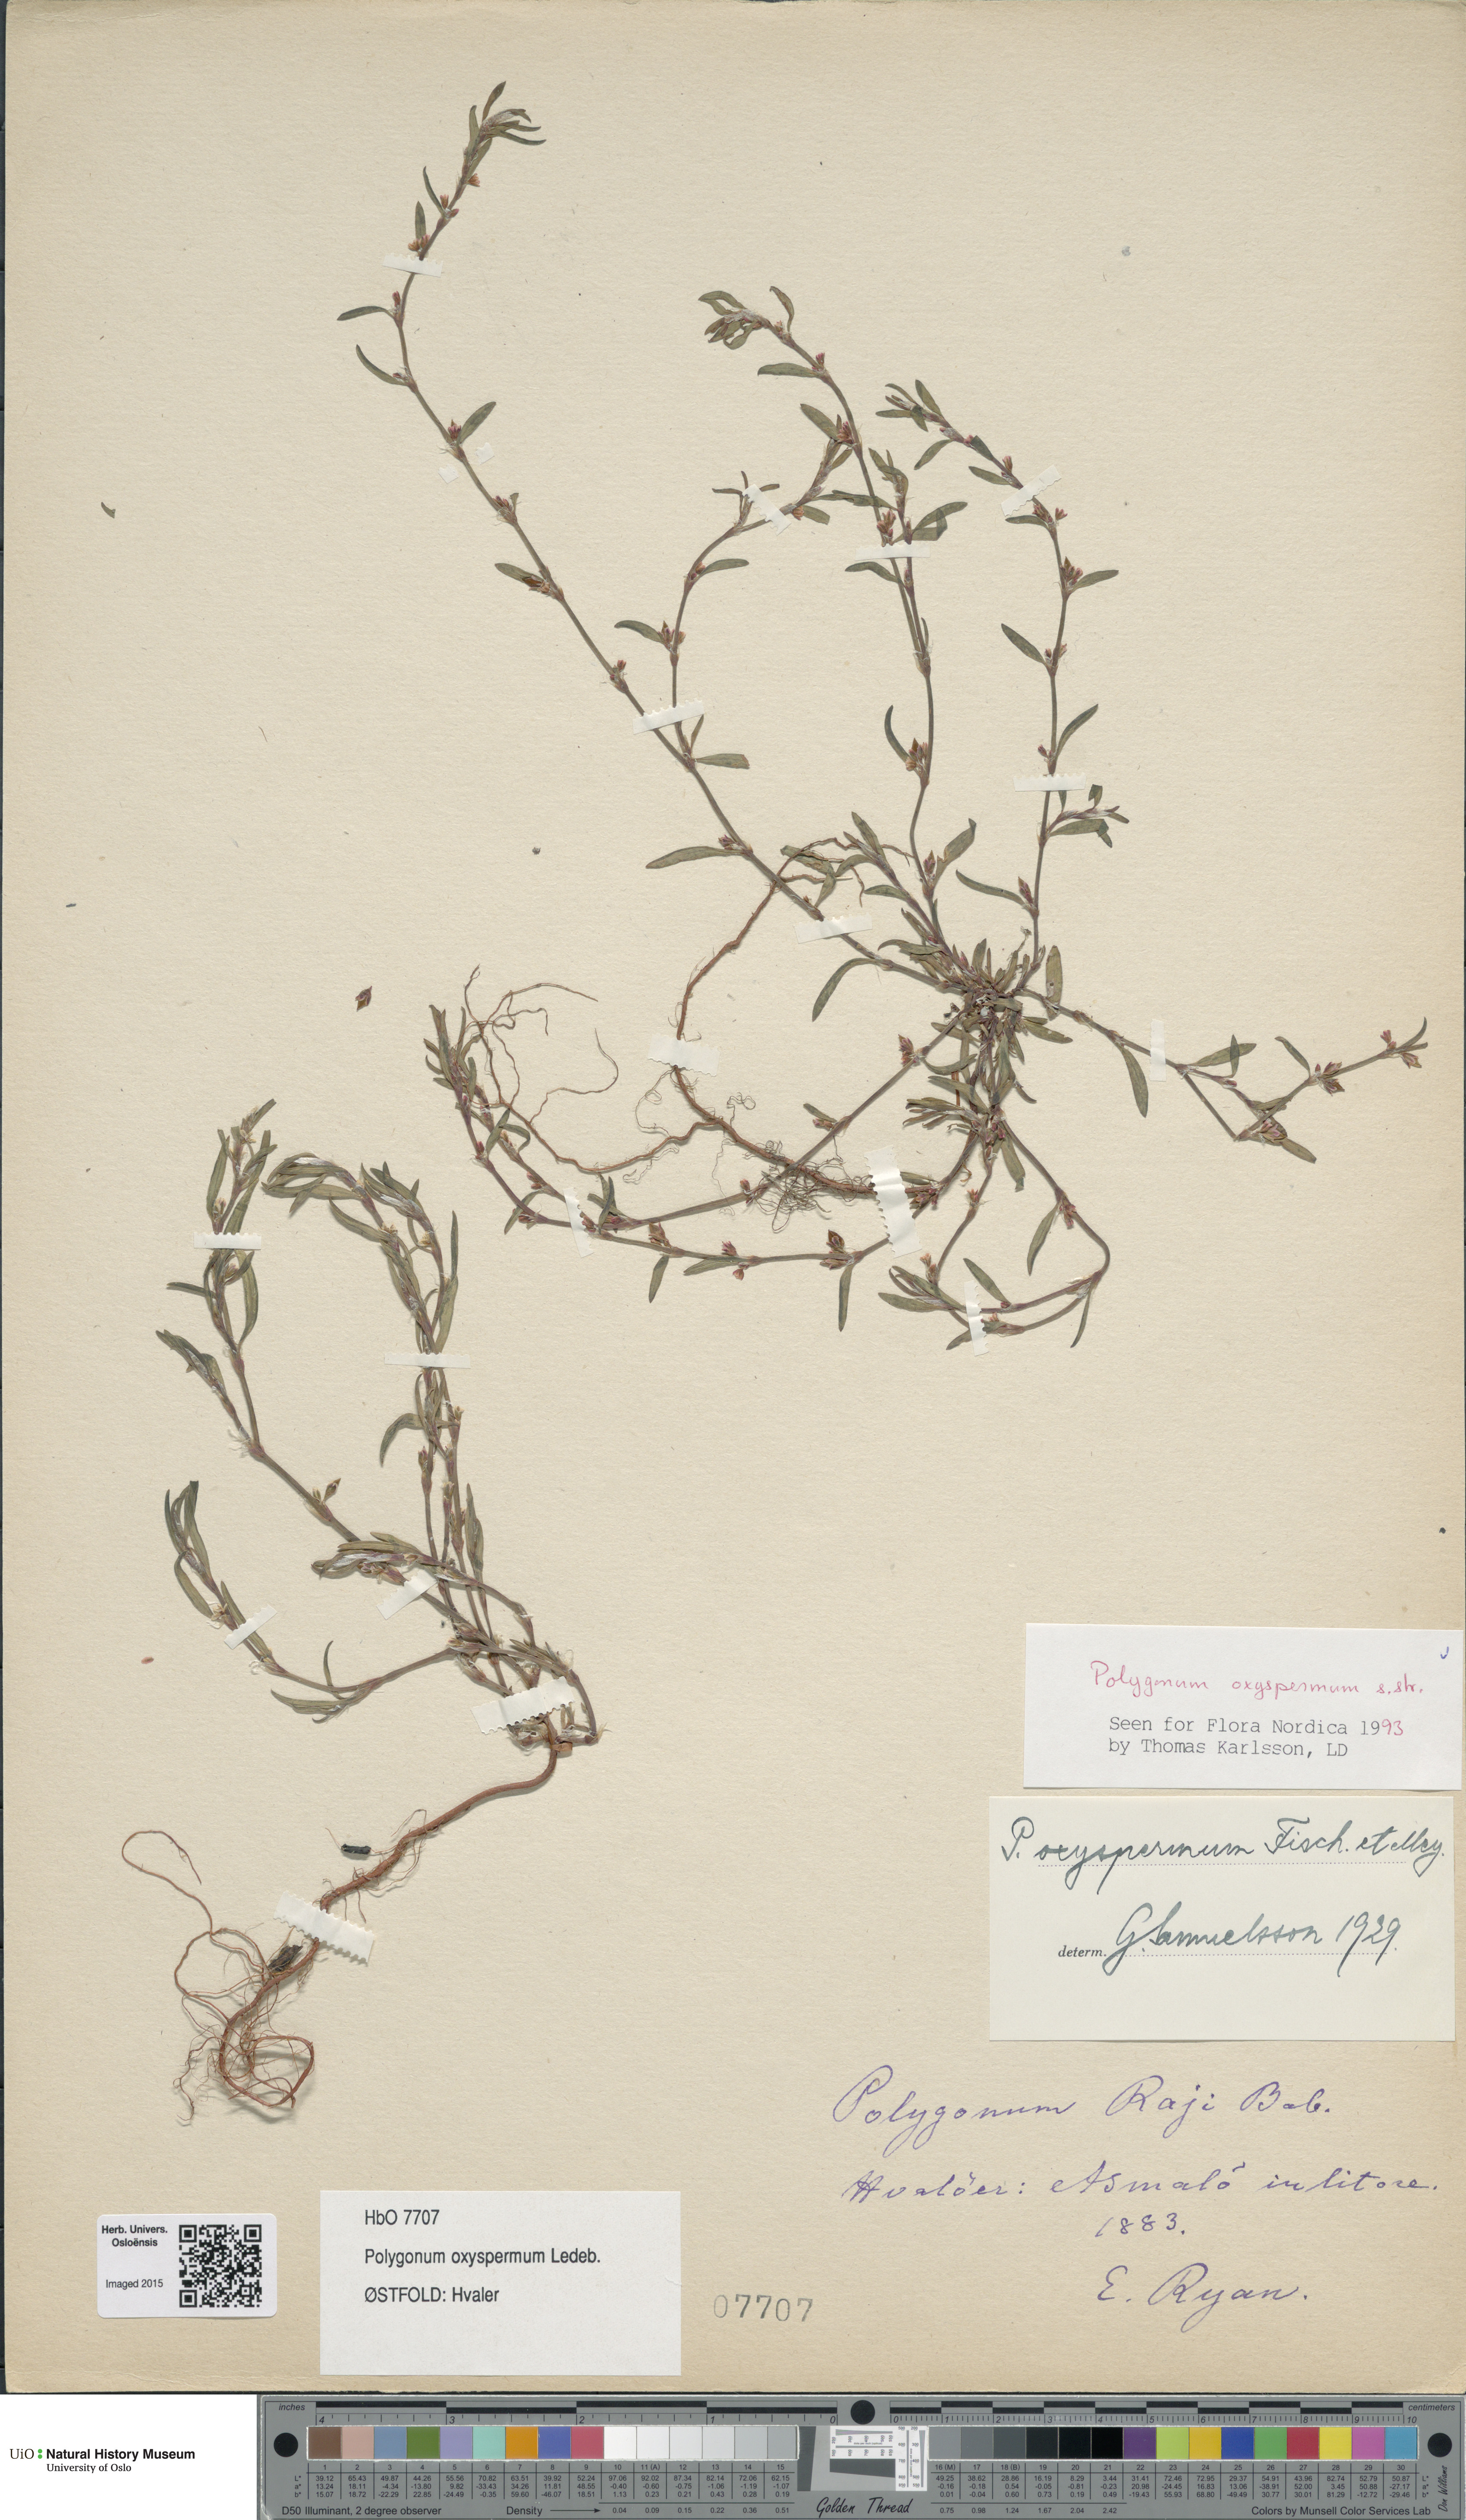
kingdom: Plantae
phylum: Tracheophyta
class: Magnoliopsida
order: Caryophyllales
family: Polygonaceae
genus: Polygonum
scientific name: Polygonum oxyspermum
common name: Ray's knotgrass
